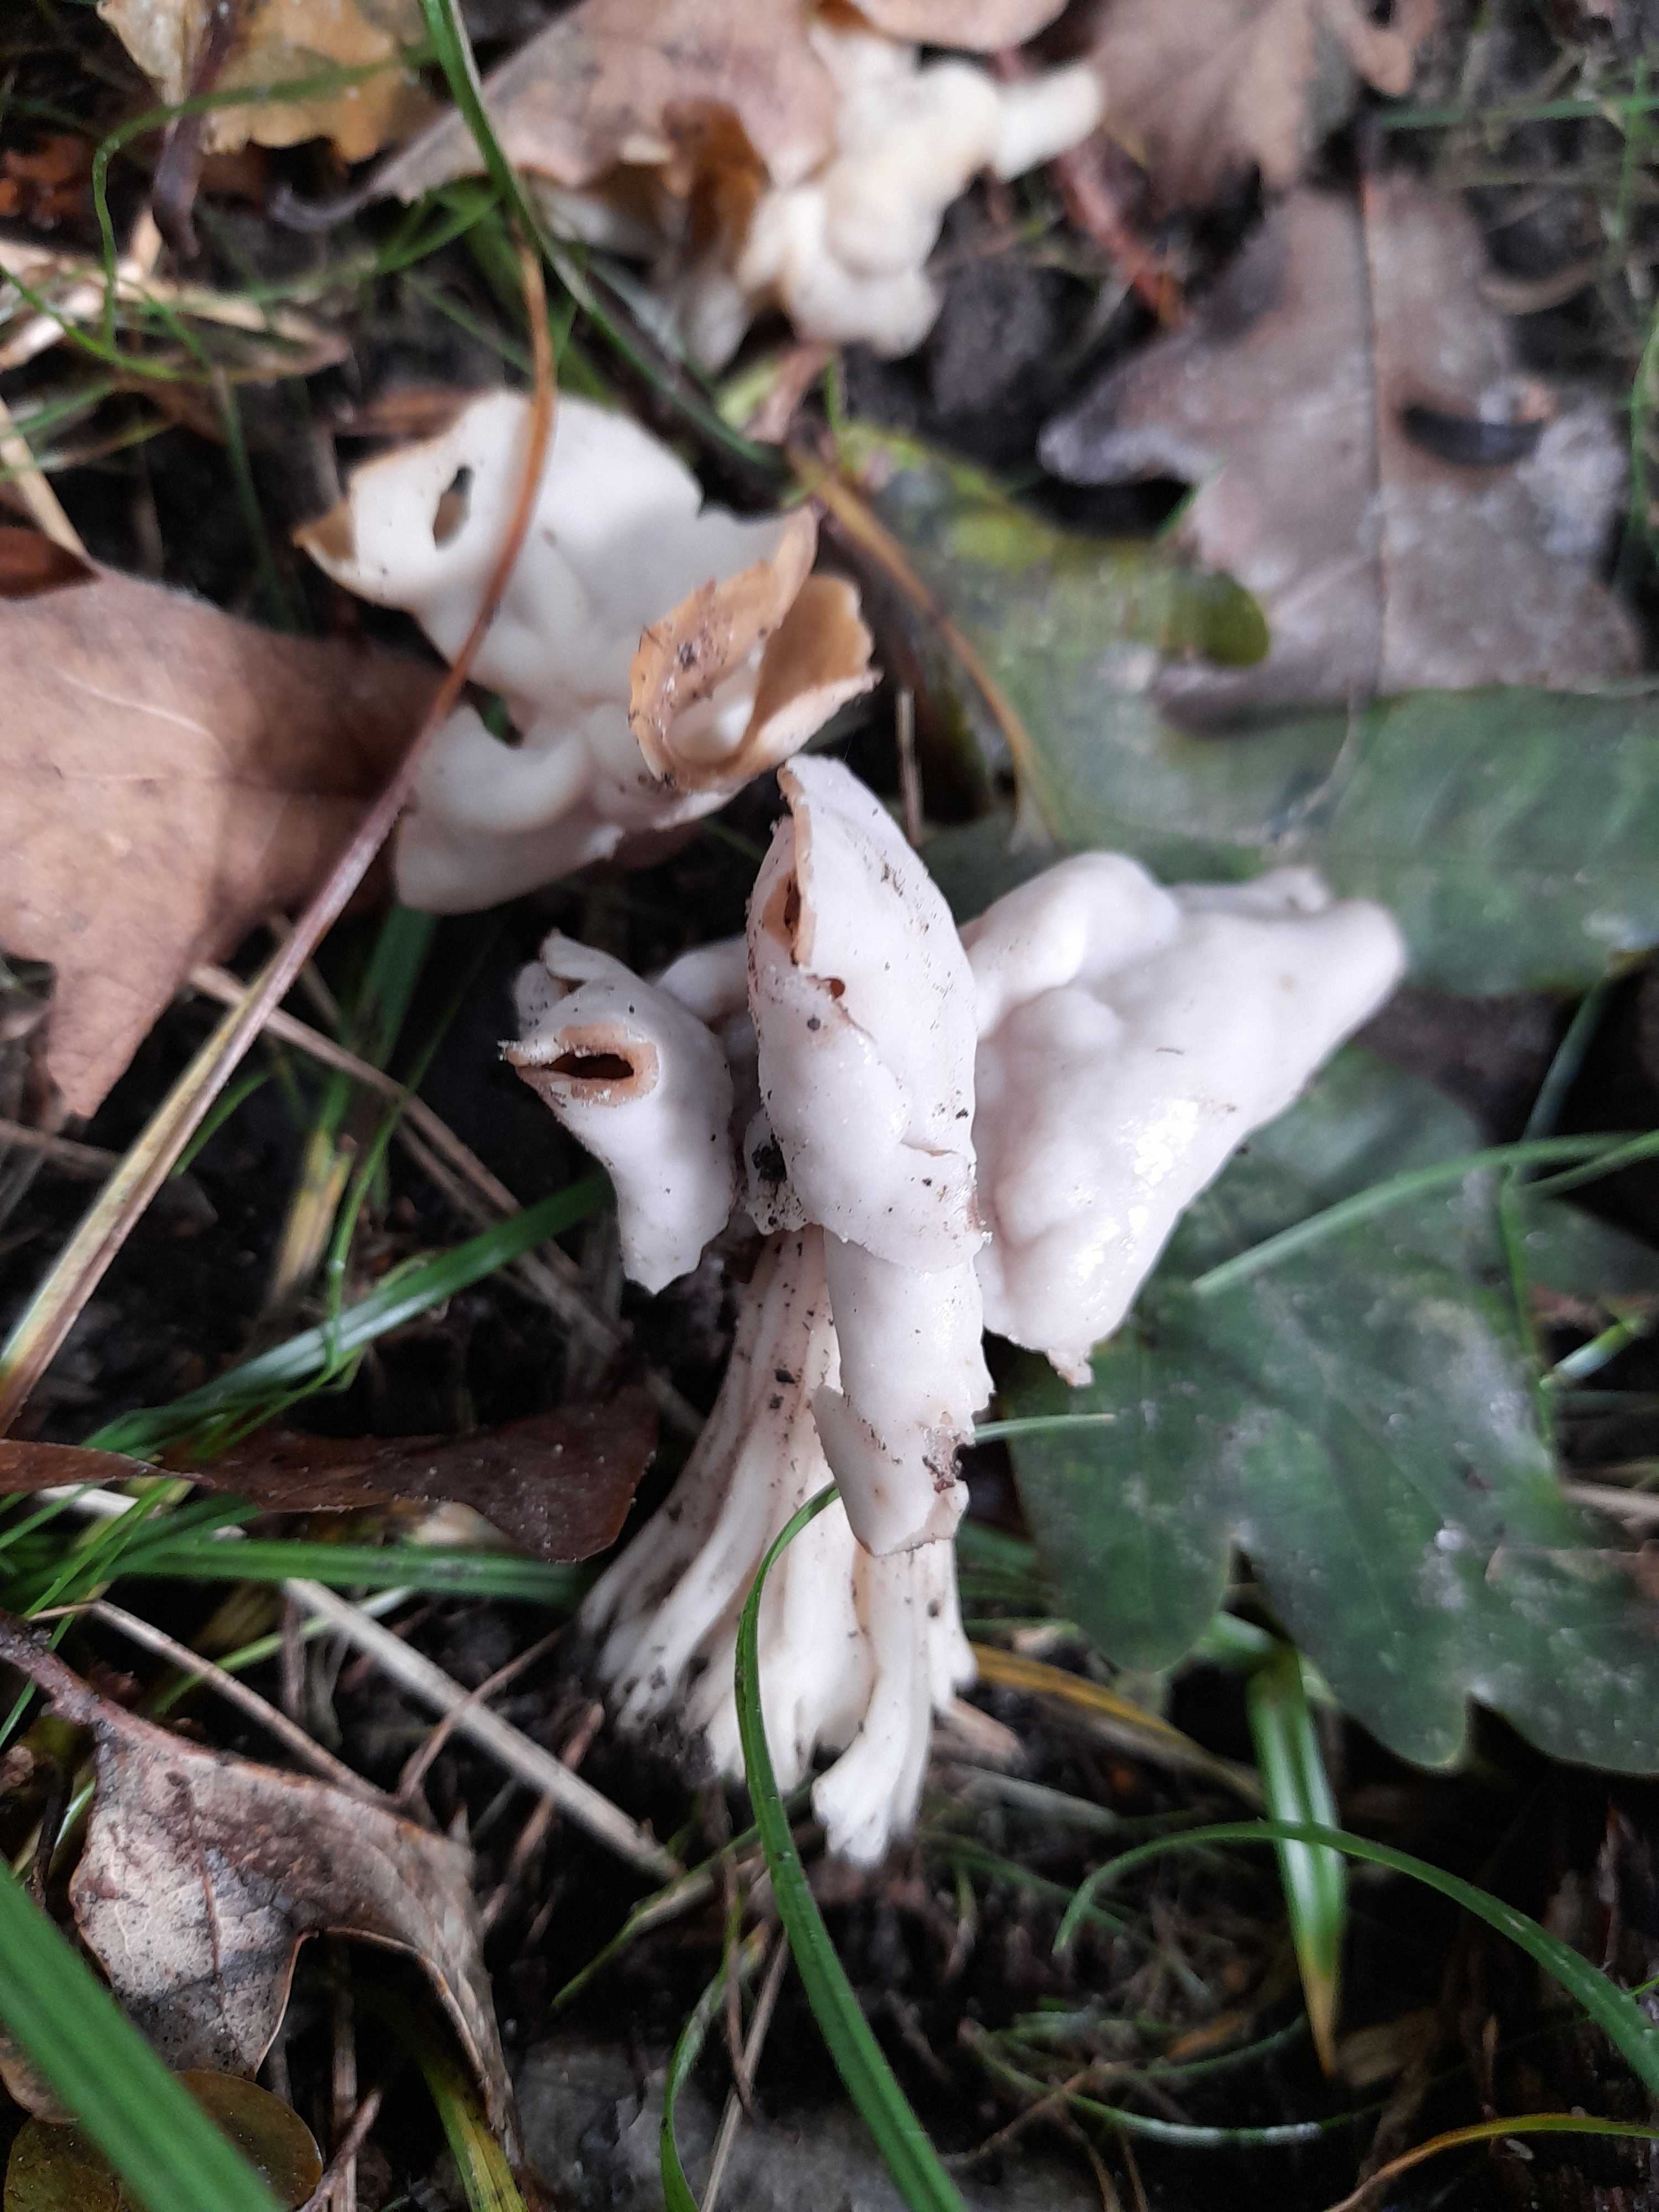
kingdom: Fungi
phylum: Ascomycota
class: Pezizomycetes
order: Pezizales
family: Helvellaceae
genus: Helvella
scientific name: Helvella crispa
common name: kruset foldhat
